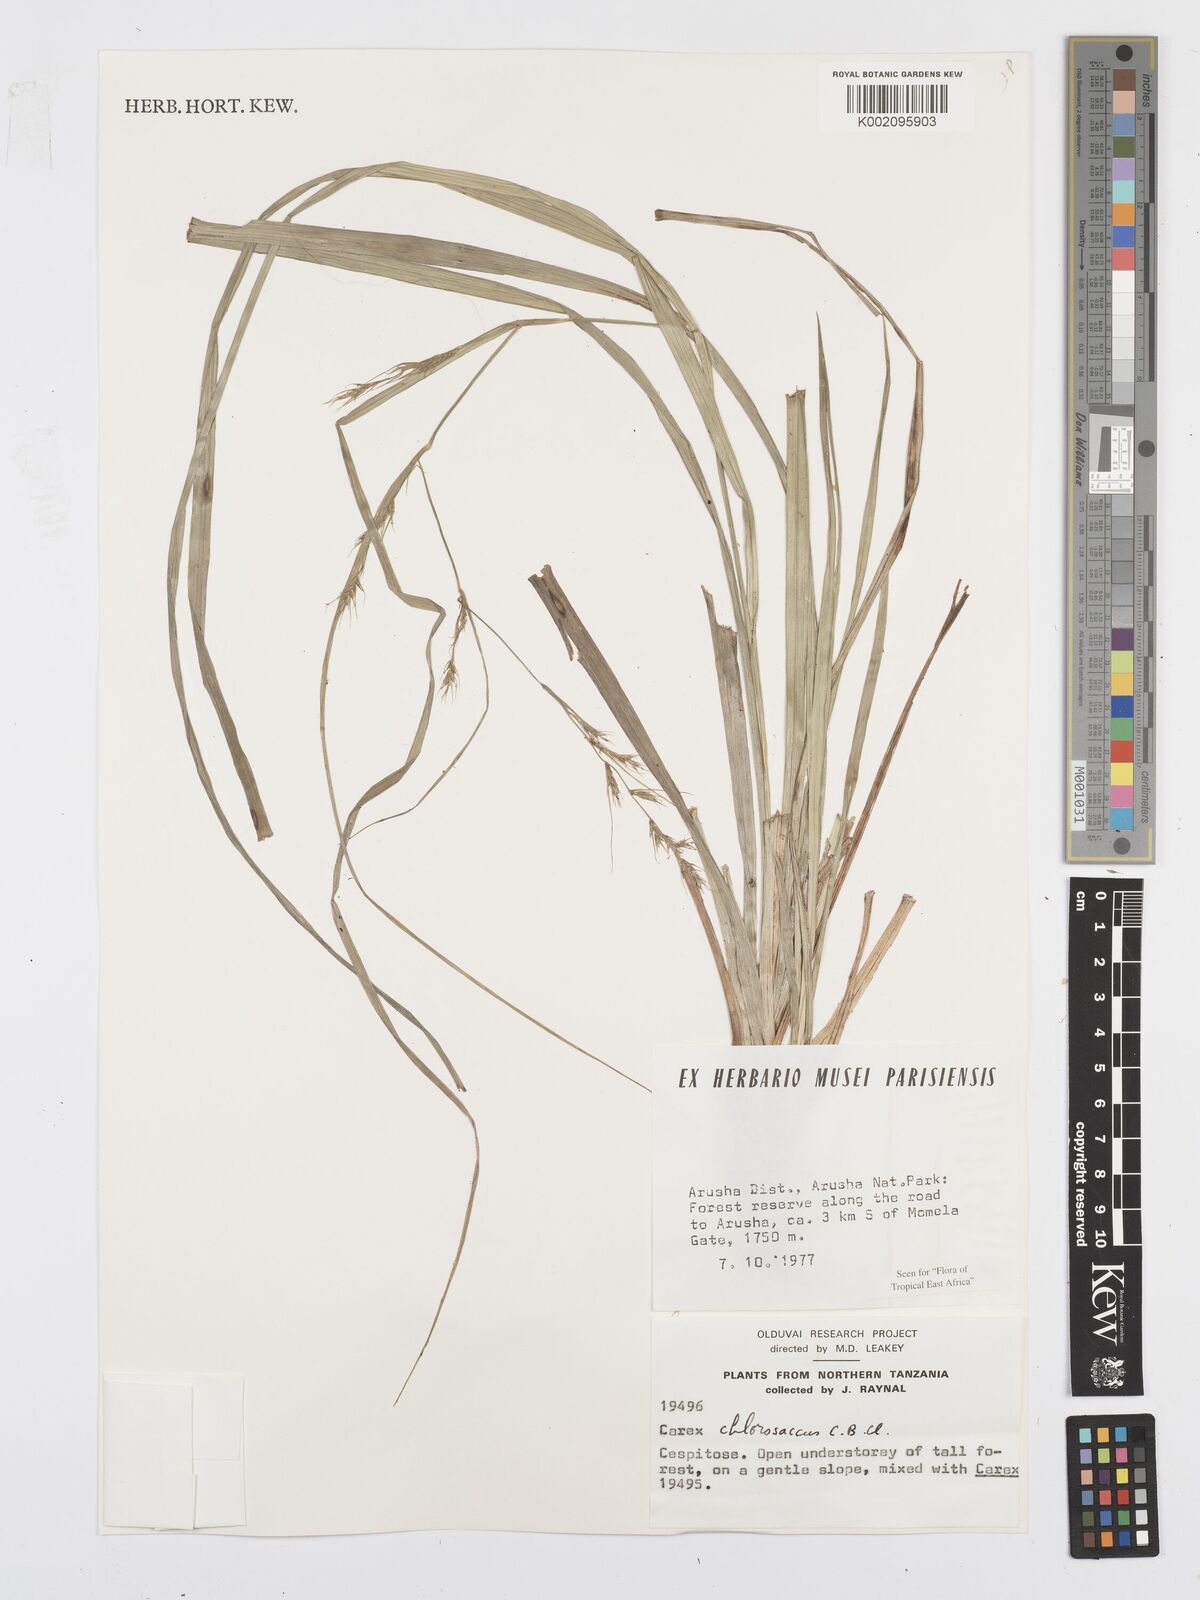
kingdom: Plantae
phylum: Tracheophyta
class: Liliopsida
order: Poales
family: Cyperaceae
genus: Carex
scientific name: Carex chlorosaccus
